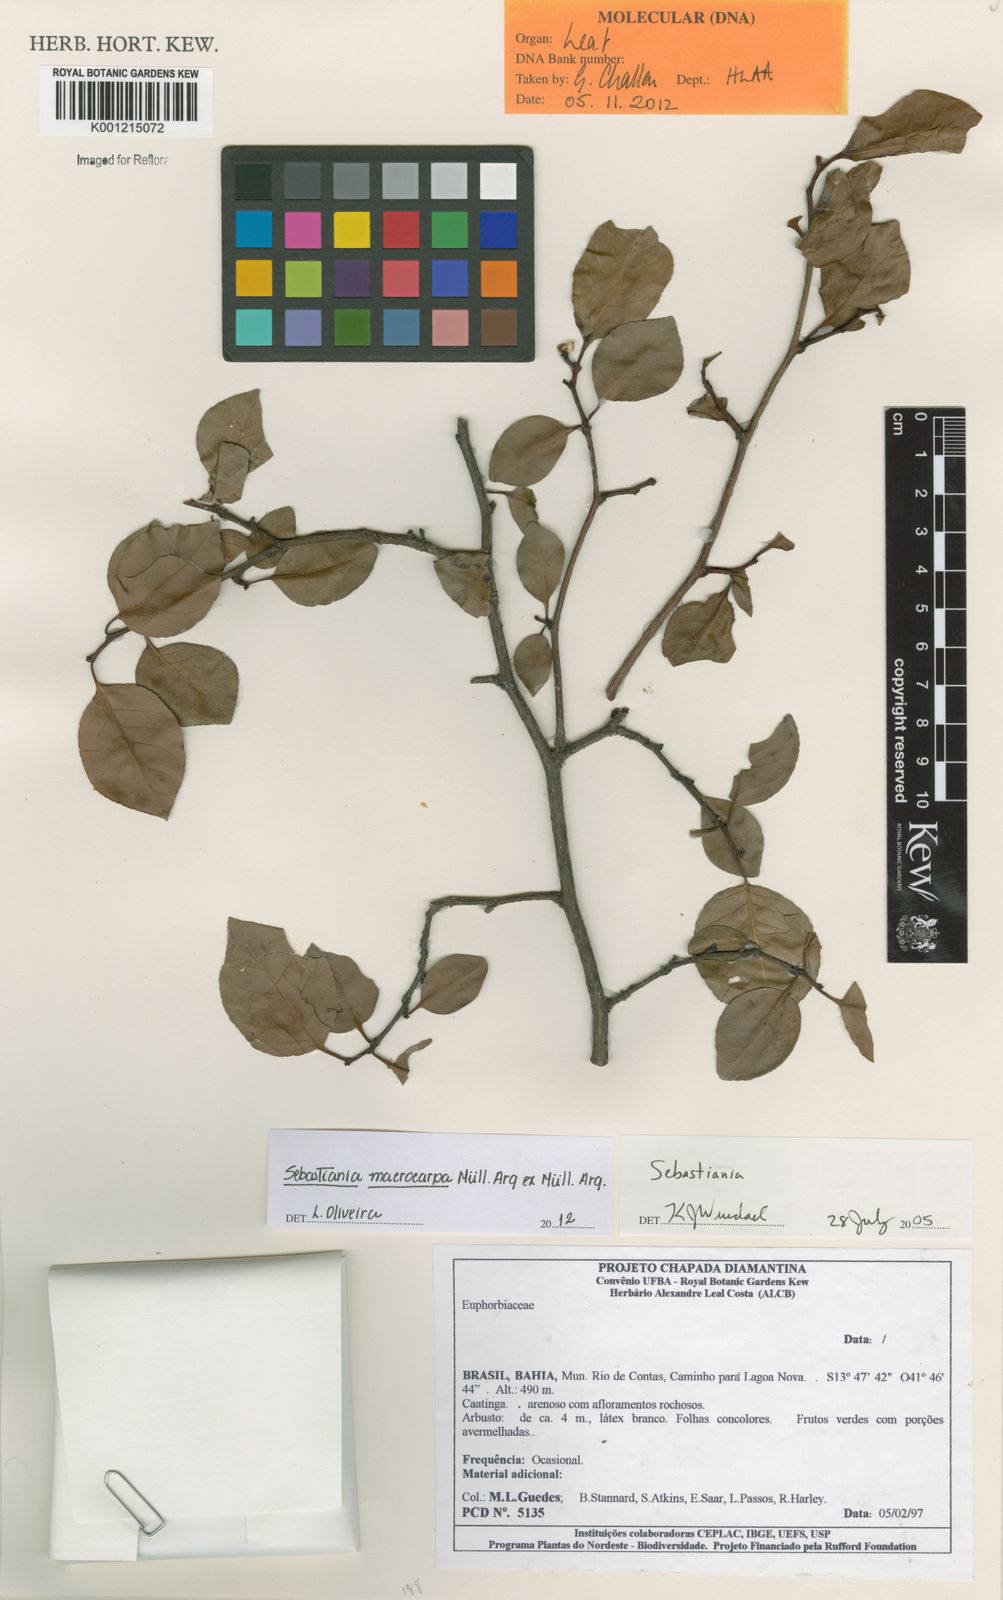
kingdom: Plantae
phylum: Tracheophyta
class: Magnoliopsida
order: Malpighiales
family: Euphorbiaceae
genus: Sebastiania
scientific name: Sebastiania
